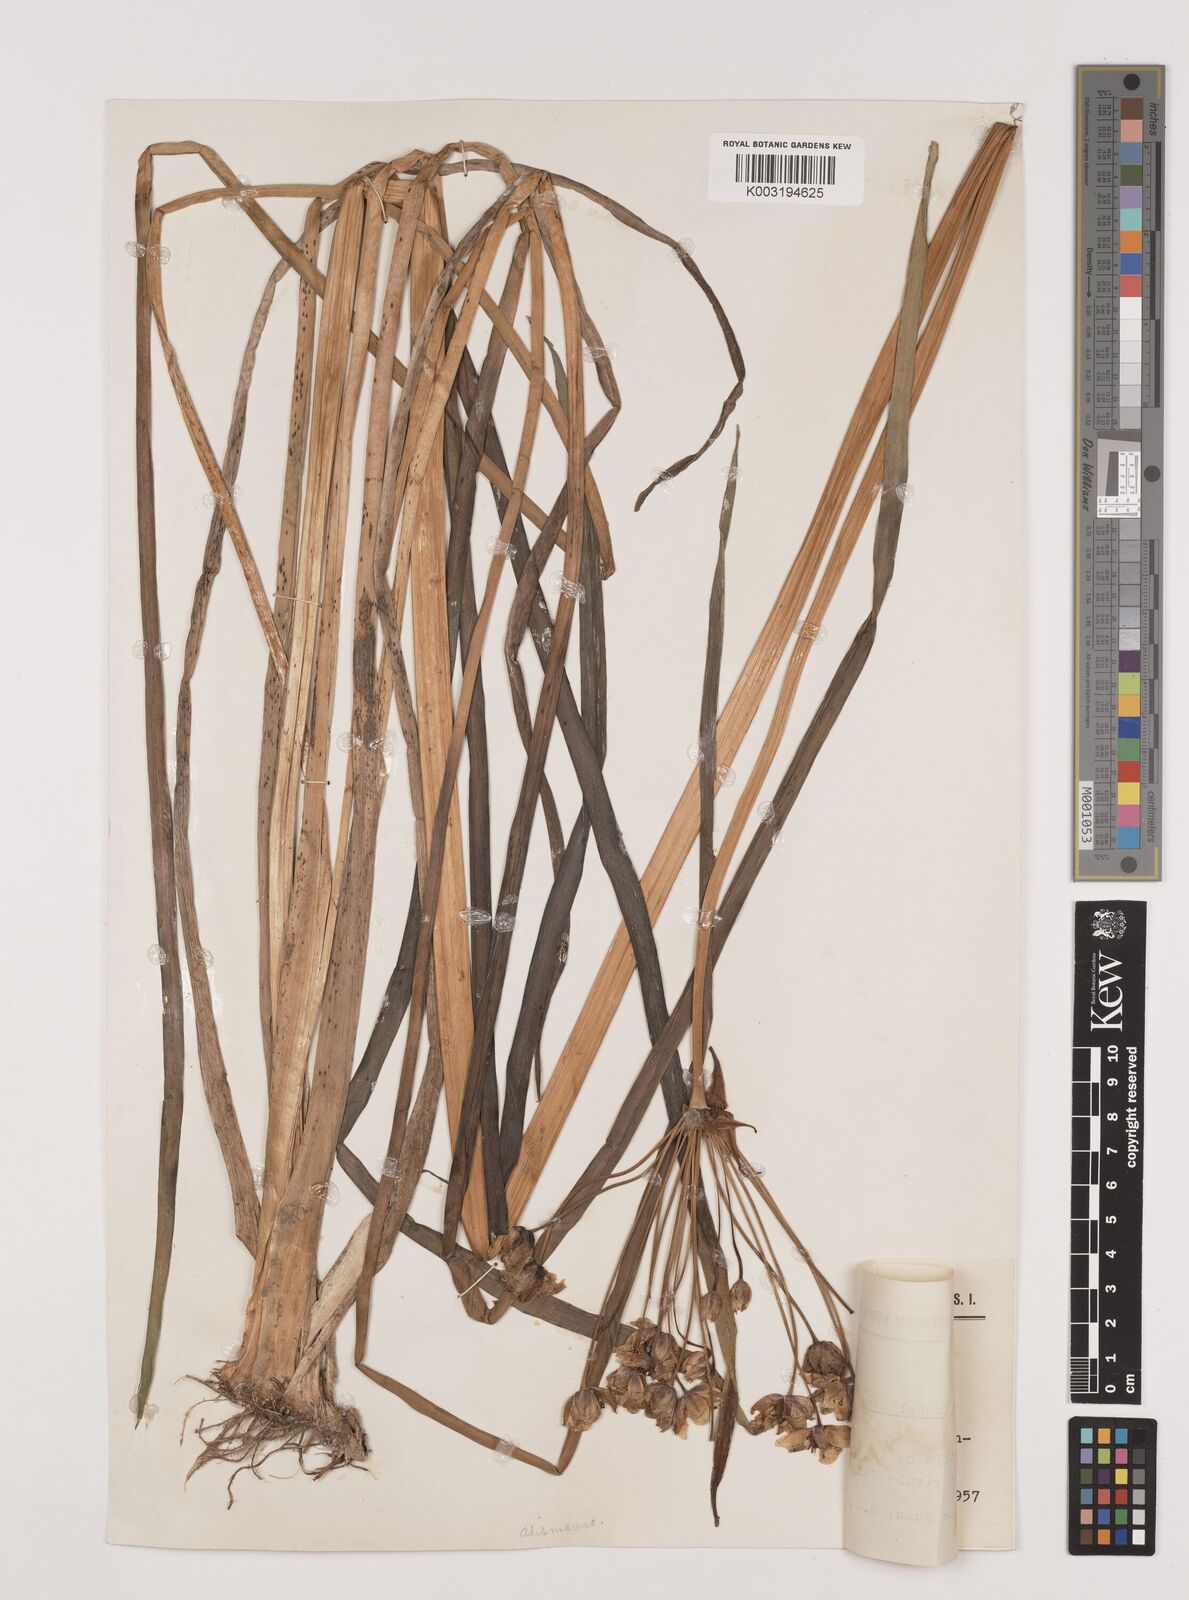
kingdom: Plantae
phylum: Tracheophyta
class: Liliopsida
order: Alismatales
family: Butomaceae
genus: Butomus
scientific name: Butomus umbellatus
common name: Flowering-rush
